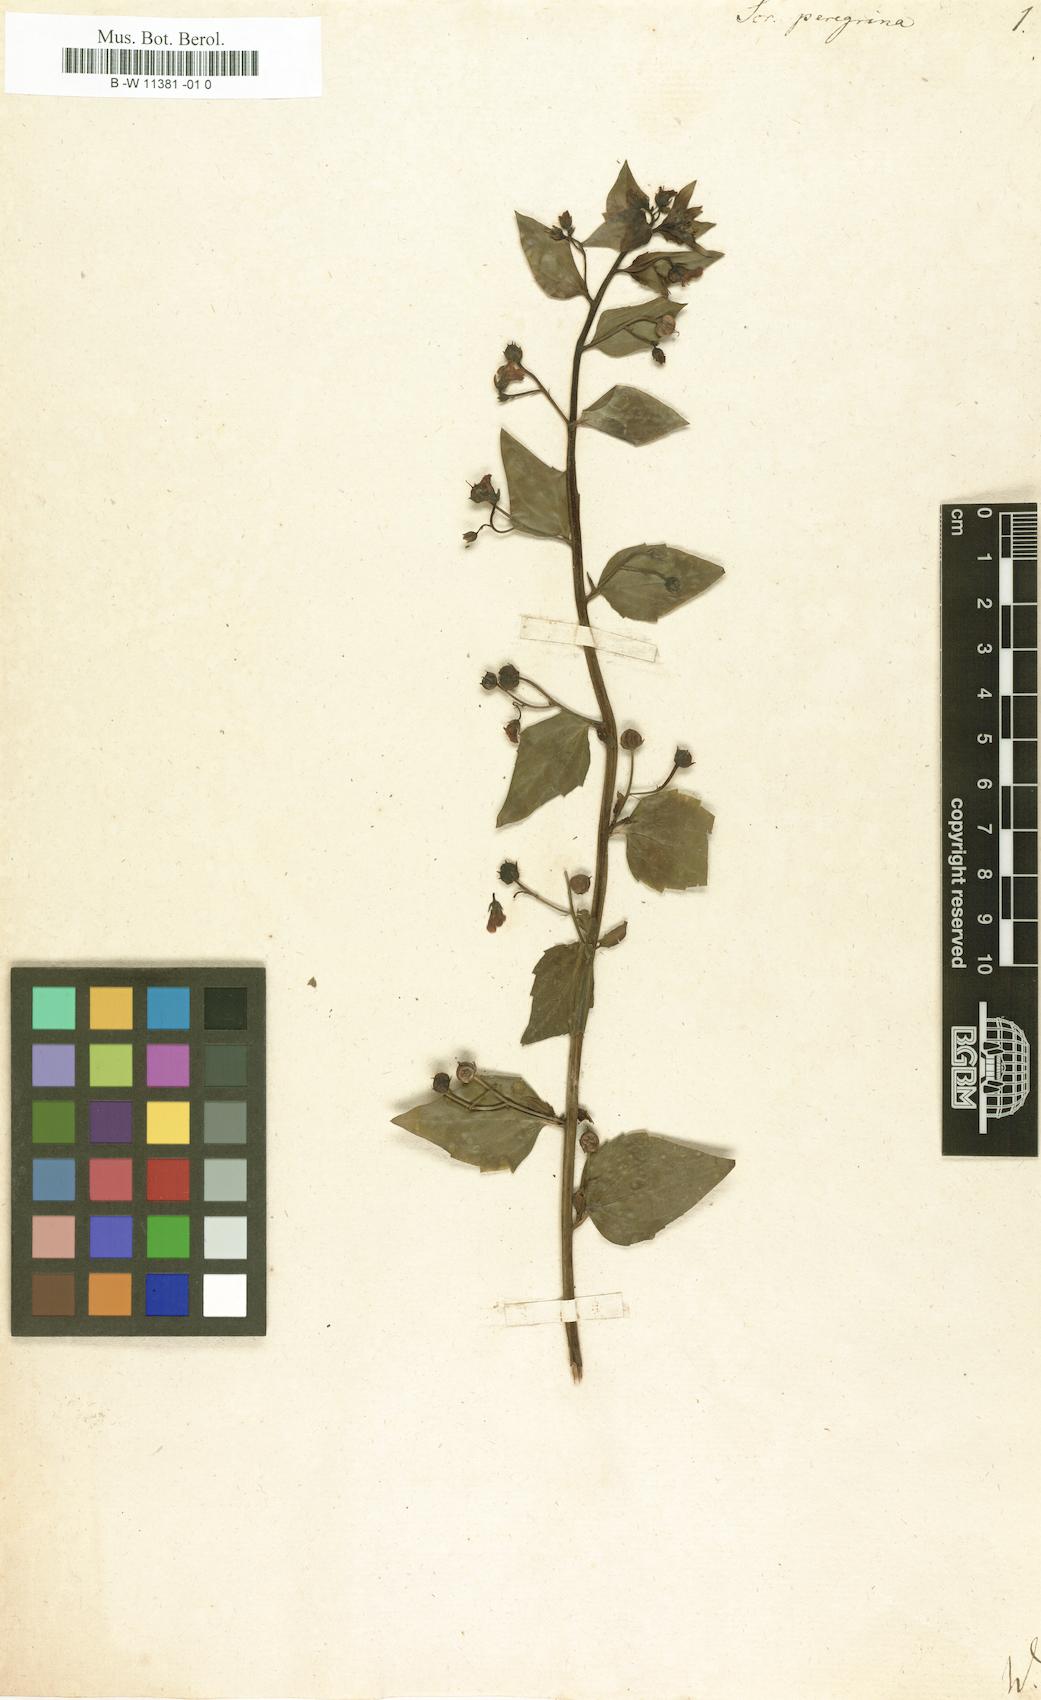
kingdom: Plantae
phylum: Tracheophyta
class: Magnoliopsida
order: Lamiales
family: Scrophulariaceae
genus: Scrophularia
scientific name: Scrophularia peregrina
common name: Mediterranean figwort
